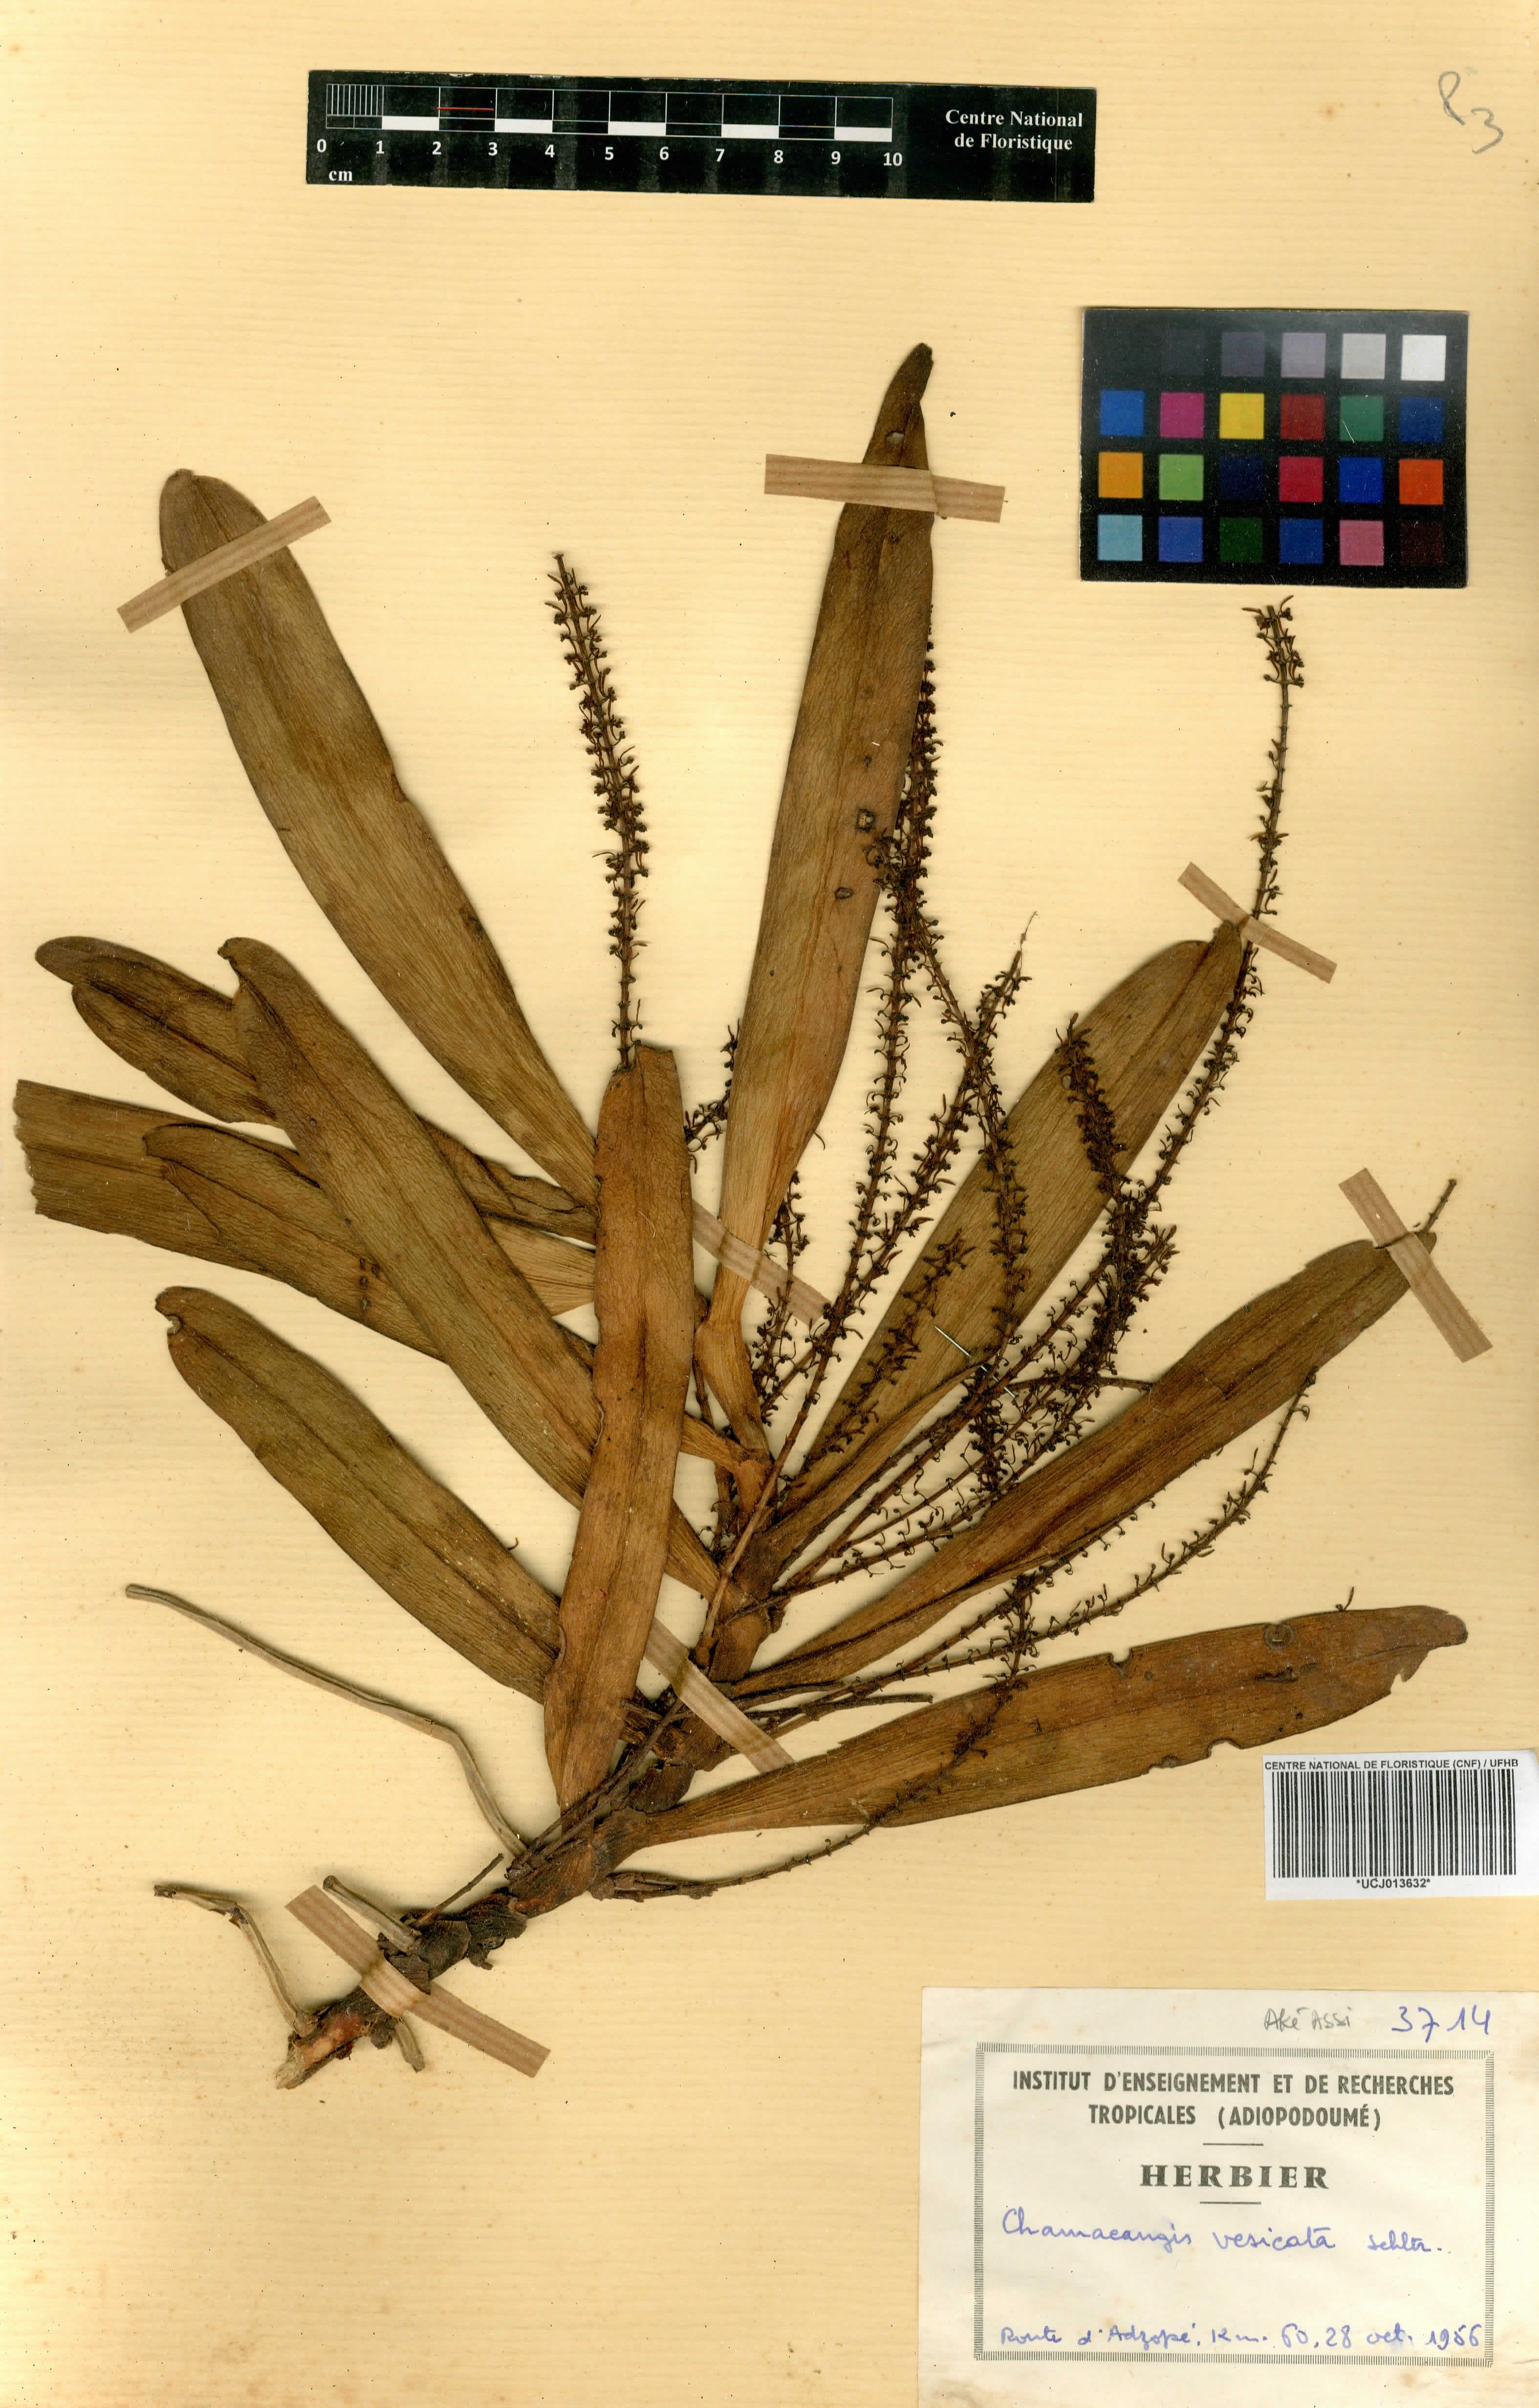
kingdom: Plantae
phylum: Tracheophyta
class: Liliopsida
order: Asparagales
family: Orchidaceae
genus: Diaphananthe
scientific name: Diaphananthe vesicata
